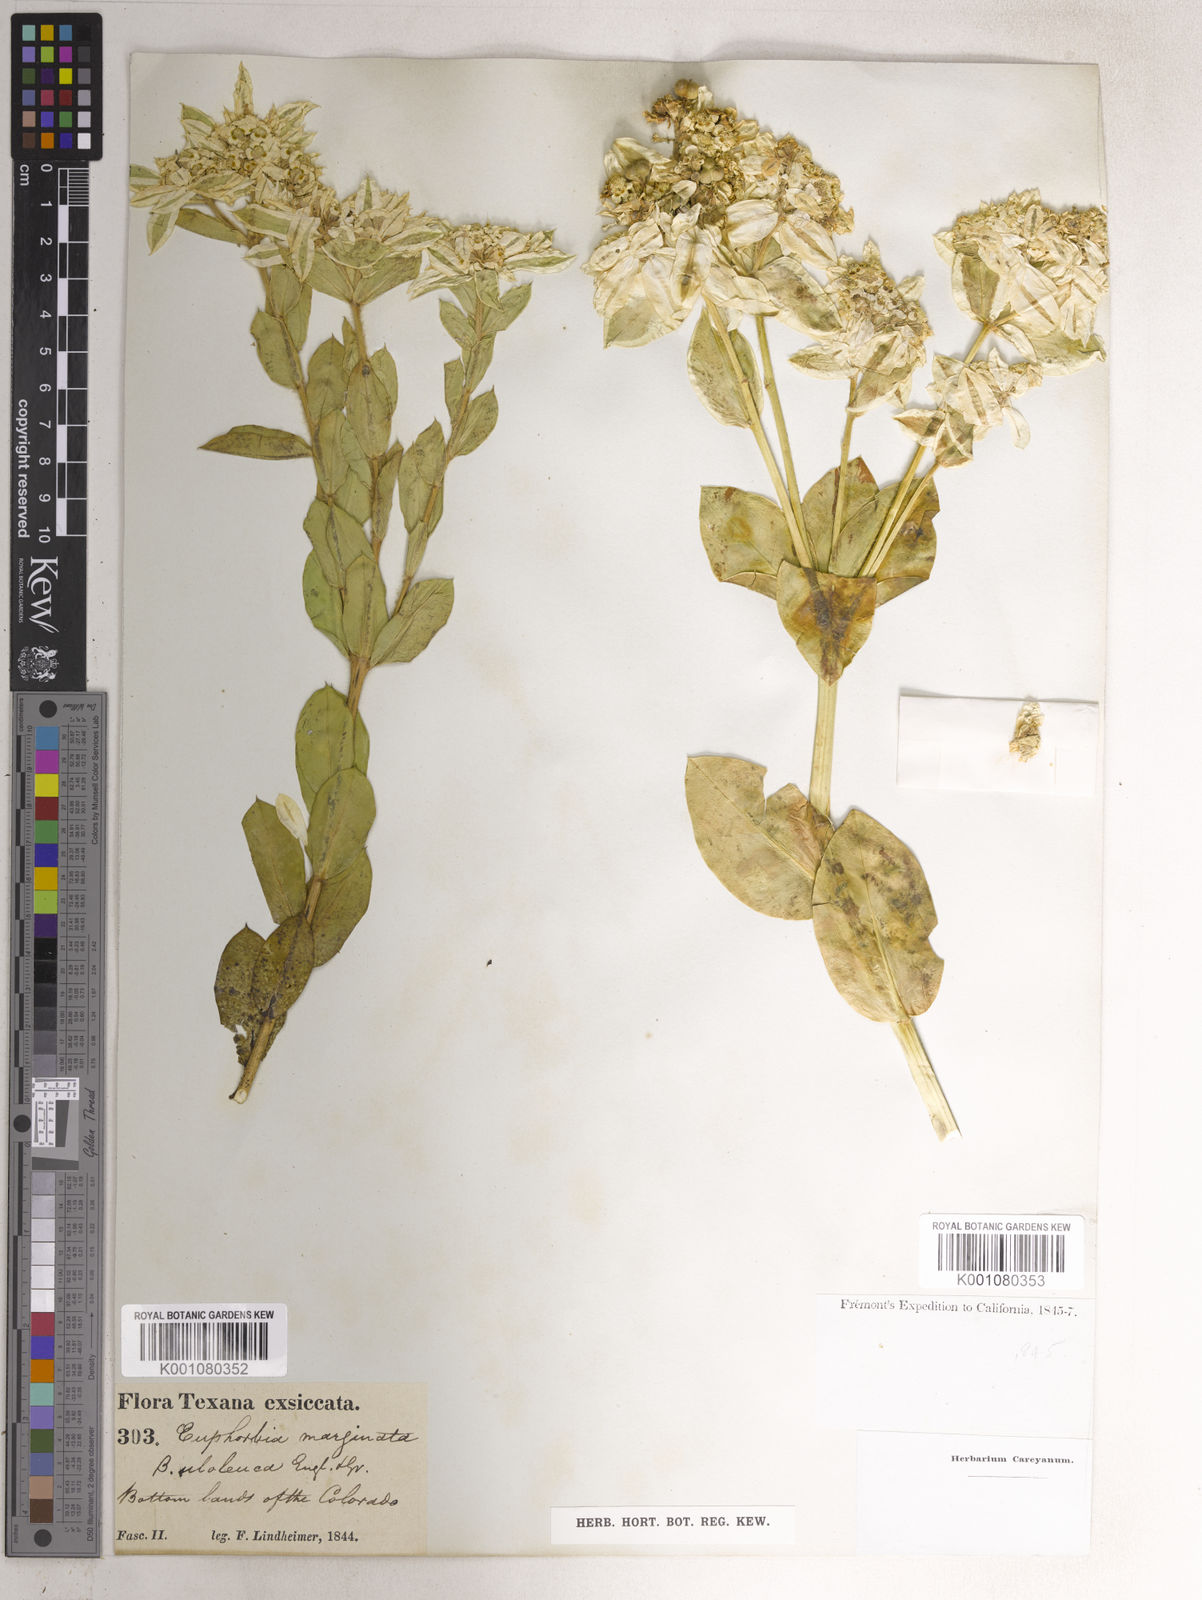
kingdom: Plantae
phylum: Tracheophyta
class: Magnoliopsida
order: Malpighiales
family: Euphorbiaceae
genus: Euphorbia
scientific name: Euphorbia marginata
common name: Ghostweed
